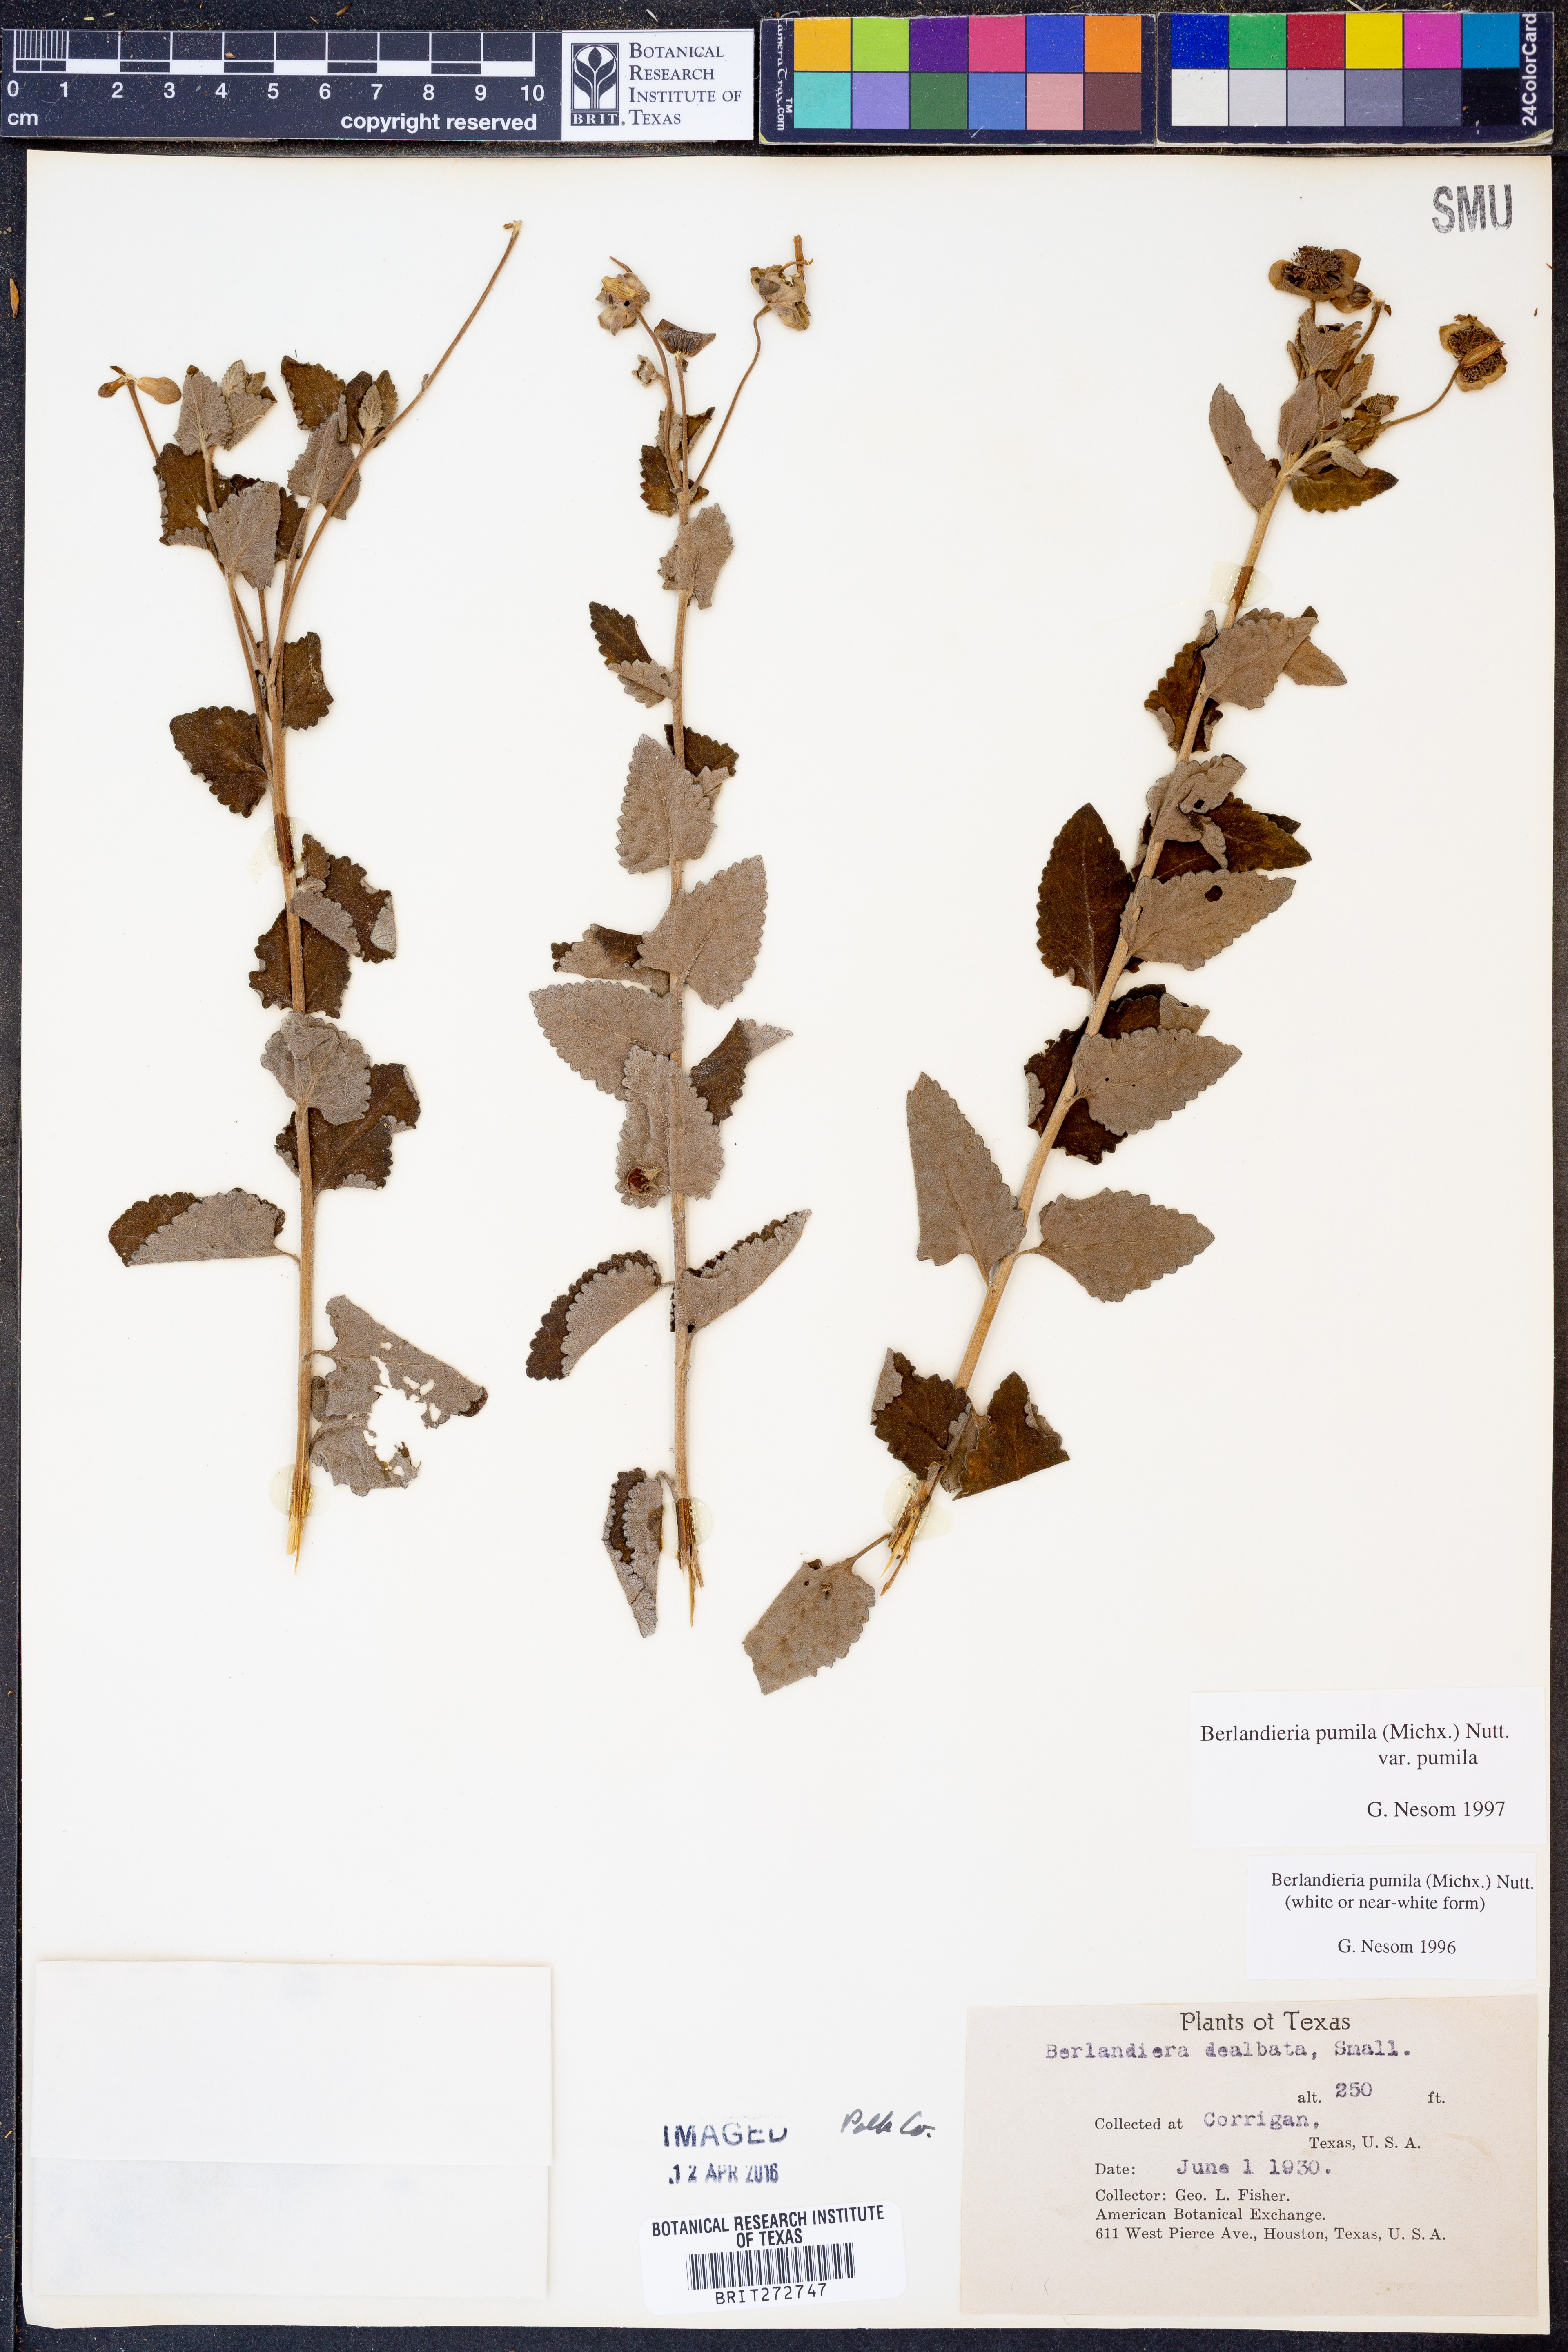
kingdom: Plantae
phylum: Tracheophyta
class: Magnoliopsida
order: Asterales
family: Asteraceae
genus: Berlandiera
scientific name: Berlandiera pumila
